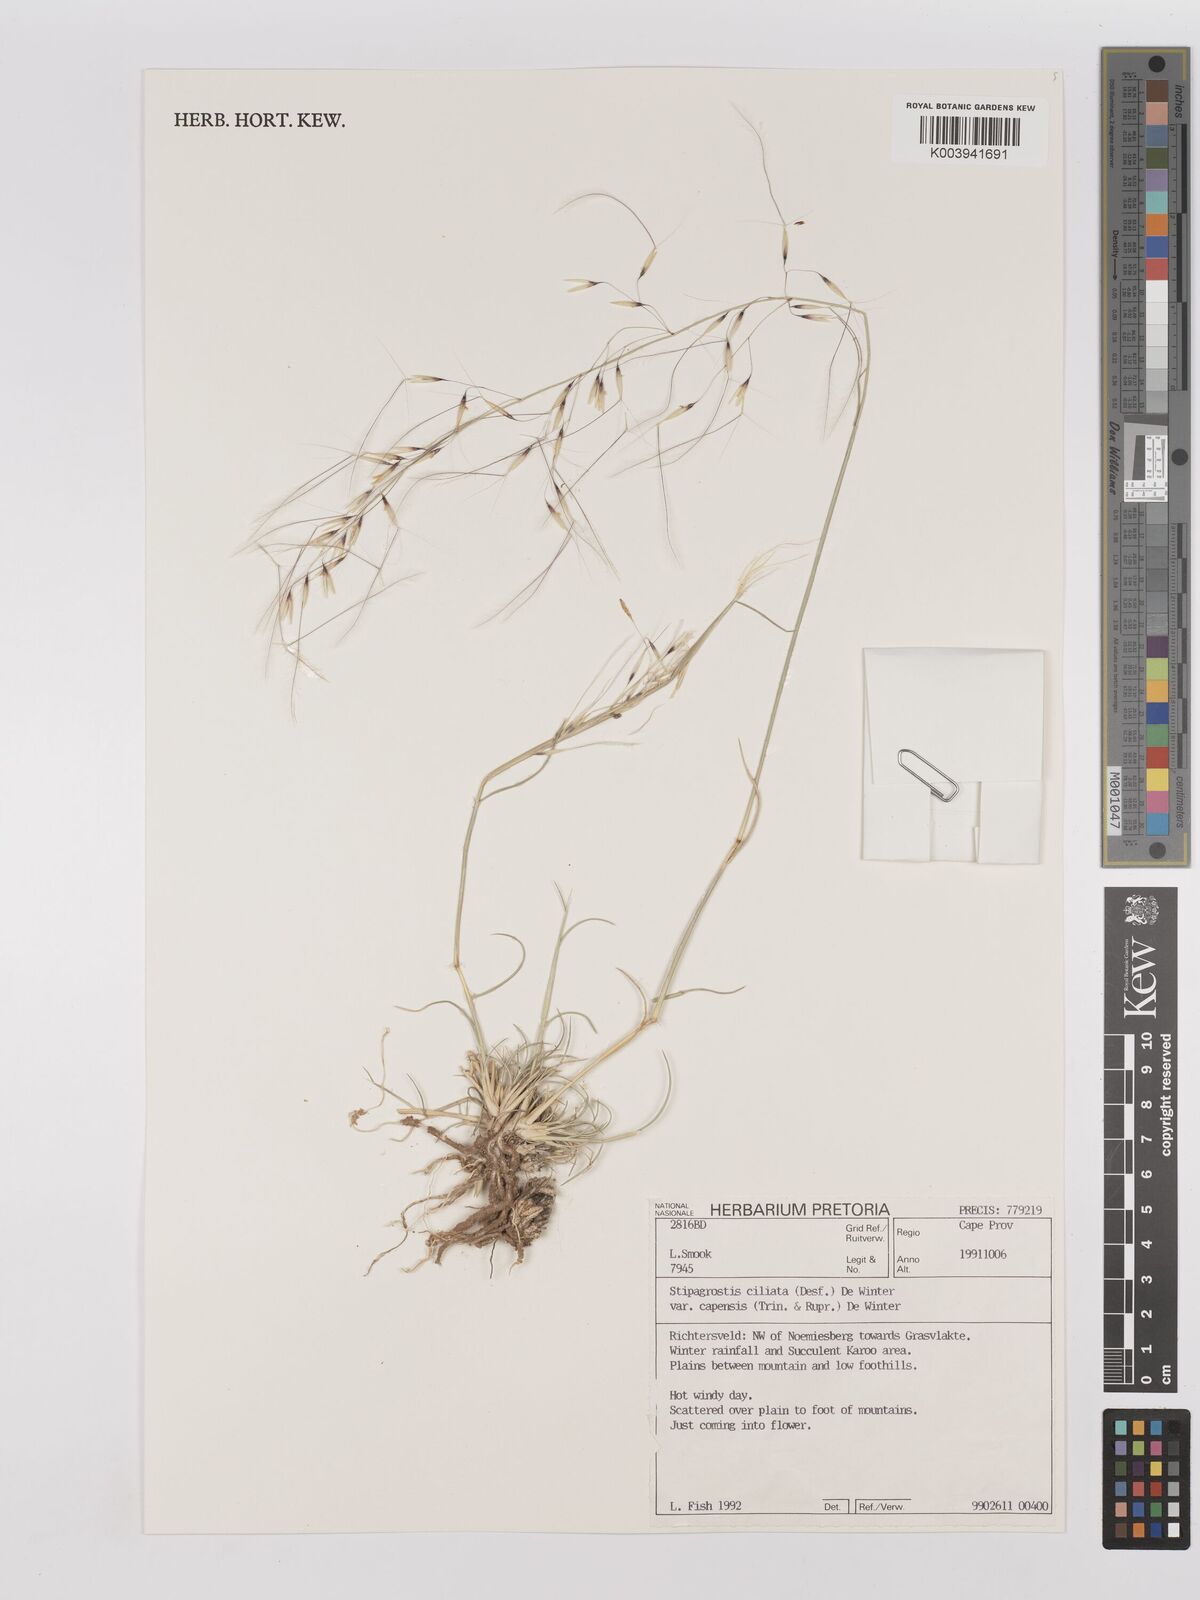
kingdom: Plantae
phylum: Tracheophyta
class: Liliopsida
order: Poales
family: Poaceae
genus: Stipagrostis
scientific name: Stipagrostis ciliata
